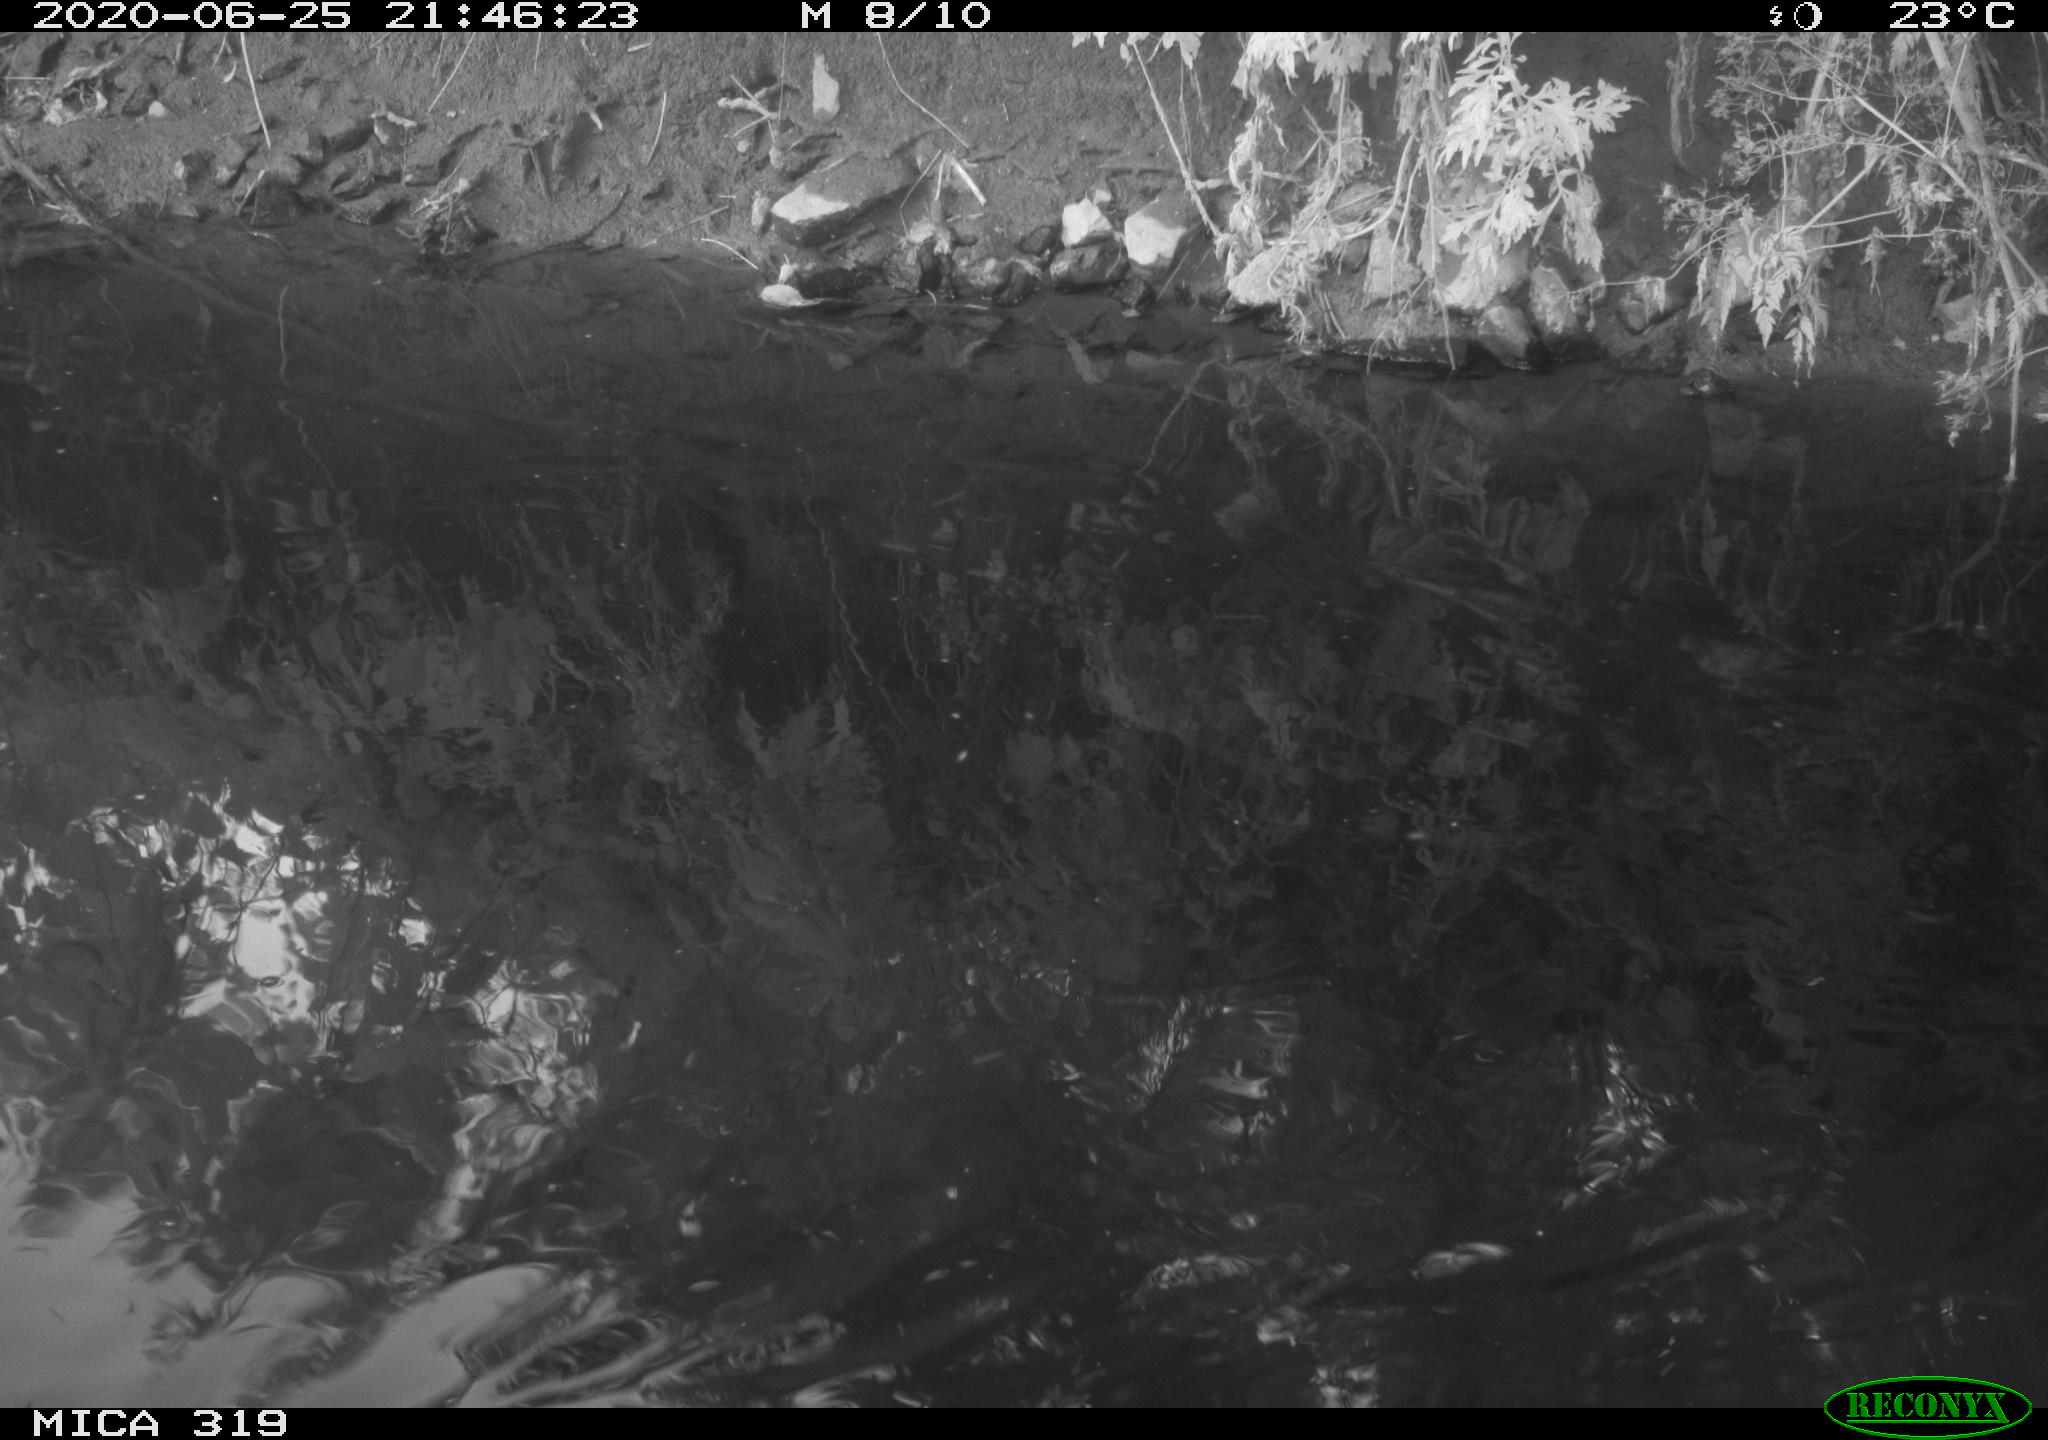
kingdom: Animalia
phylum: Chordata
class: Aves
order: Anseriformes
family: Anatidae
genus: Anas
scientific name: Anas platyrhynchos
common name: Mallard
